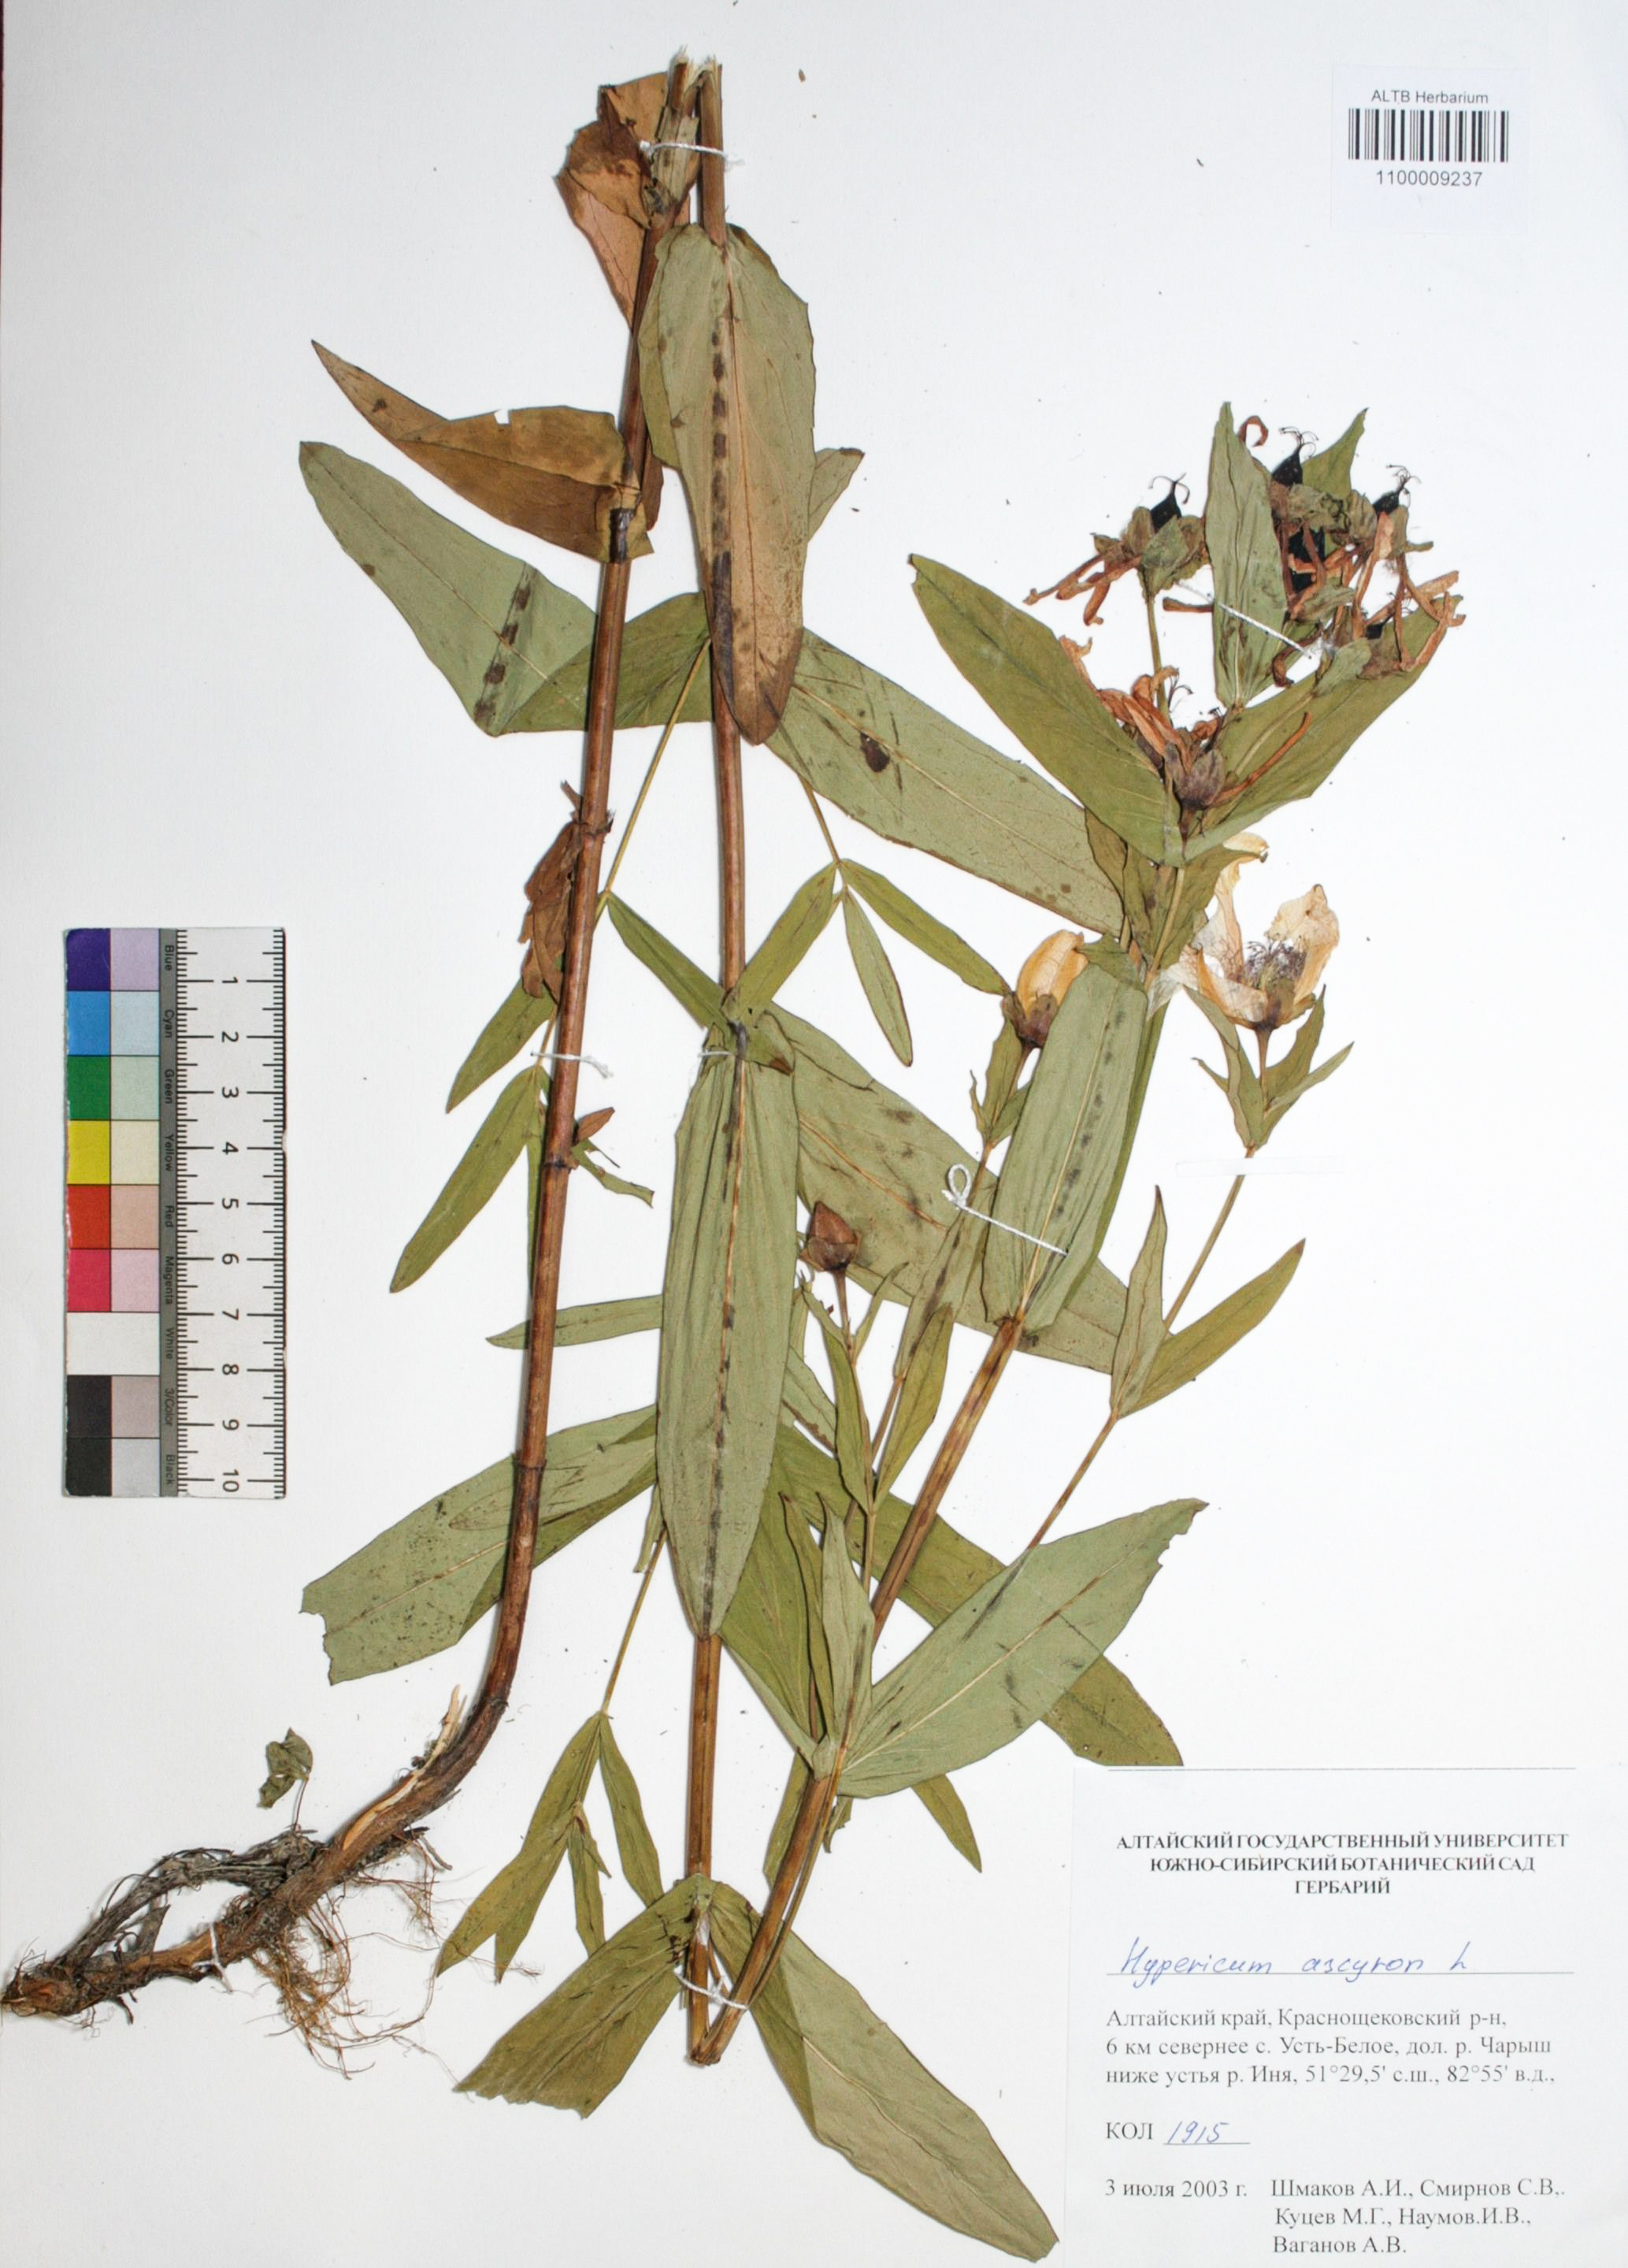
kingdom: Plantae
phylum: Tracheophyta
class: Magnoliopsida
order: Malpighiales
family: Hypericaceae
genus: Hypericum
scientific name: Hypericum ascyron
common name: Giant st. john's-wort
